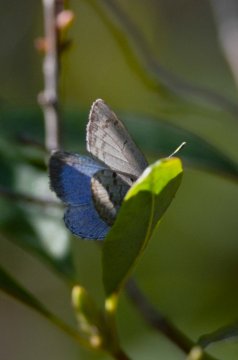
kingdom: Animalia
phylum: Arthropoda
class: Insecta
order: Lepidoptera
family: Lycaenidae
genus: Celastrina
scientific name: Celastrina ladon
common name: Spring Azure
